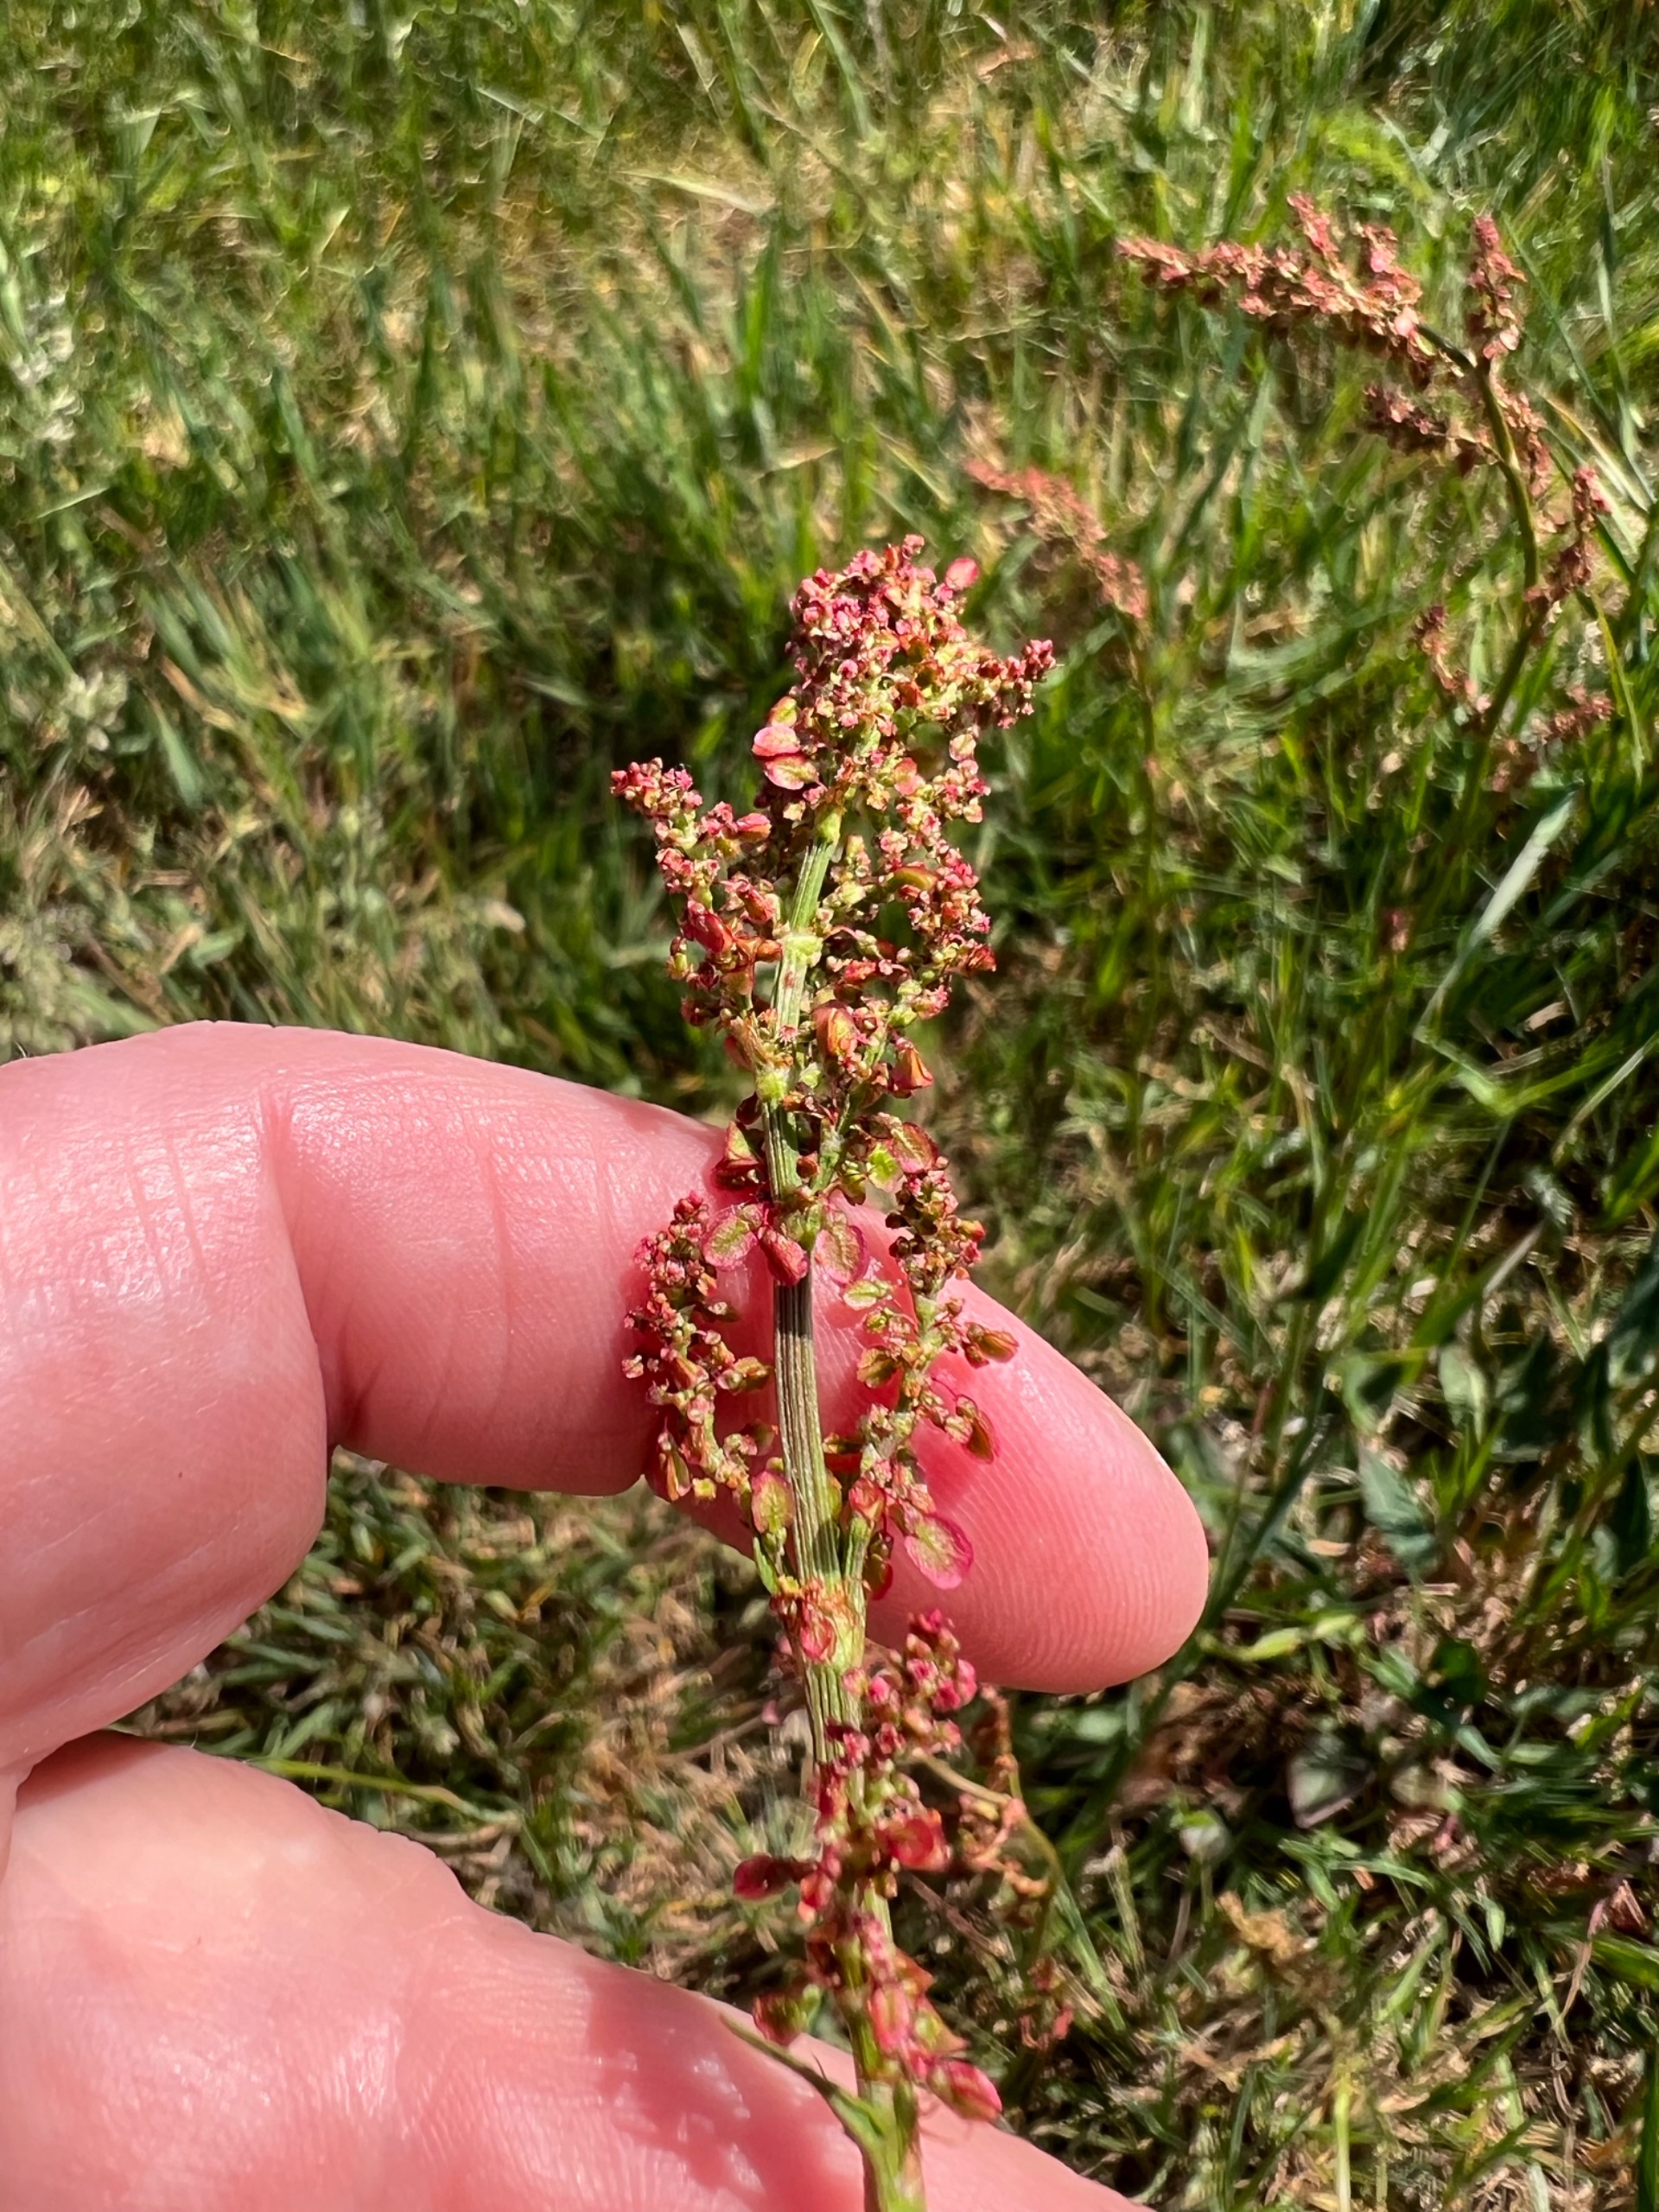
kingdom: Plantae
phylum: Tracheophyta
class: Magnoliopsida
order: Caryophyllales
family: Polygonaceae
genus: Rumex
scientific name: Rumex acetosa
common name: Almindelig syre
